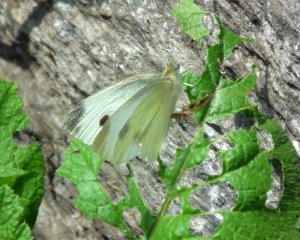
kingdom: Animalia
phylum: Arthropoda
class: Insecta
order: Lepidoptera
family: Pieridae
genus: Pieris
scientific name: Pieris rapae
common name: Cabbage White
